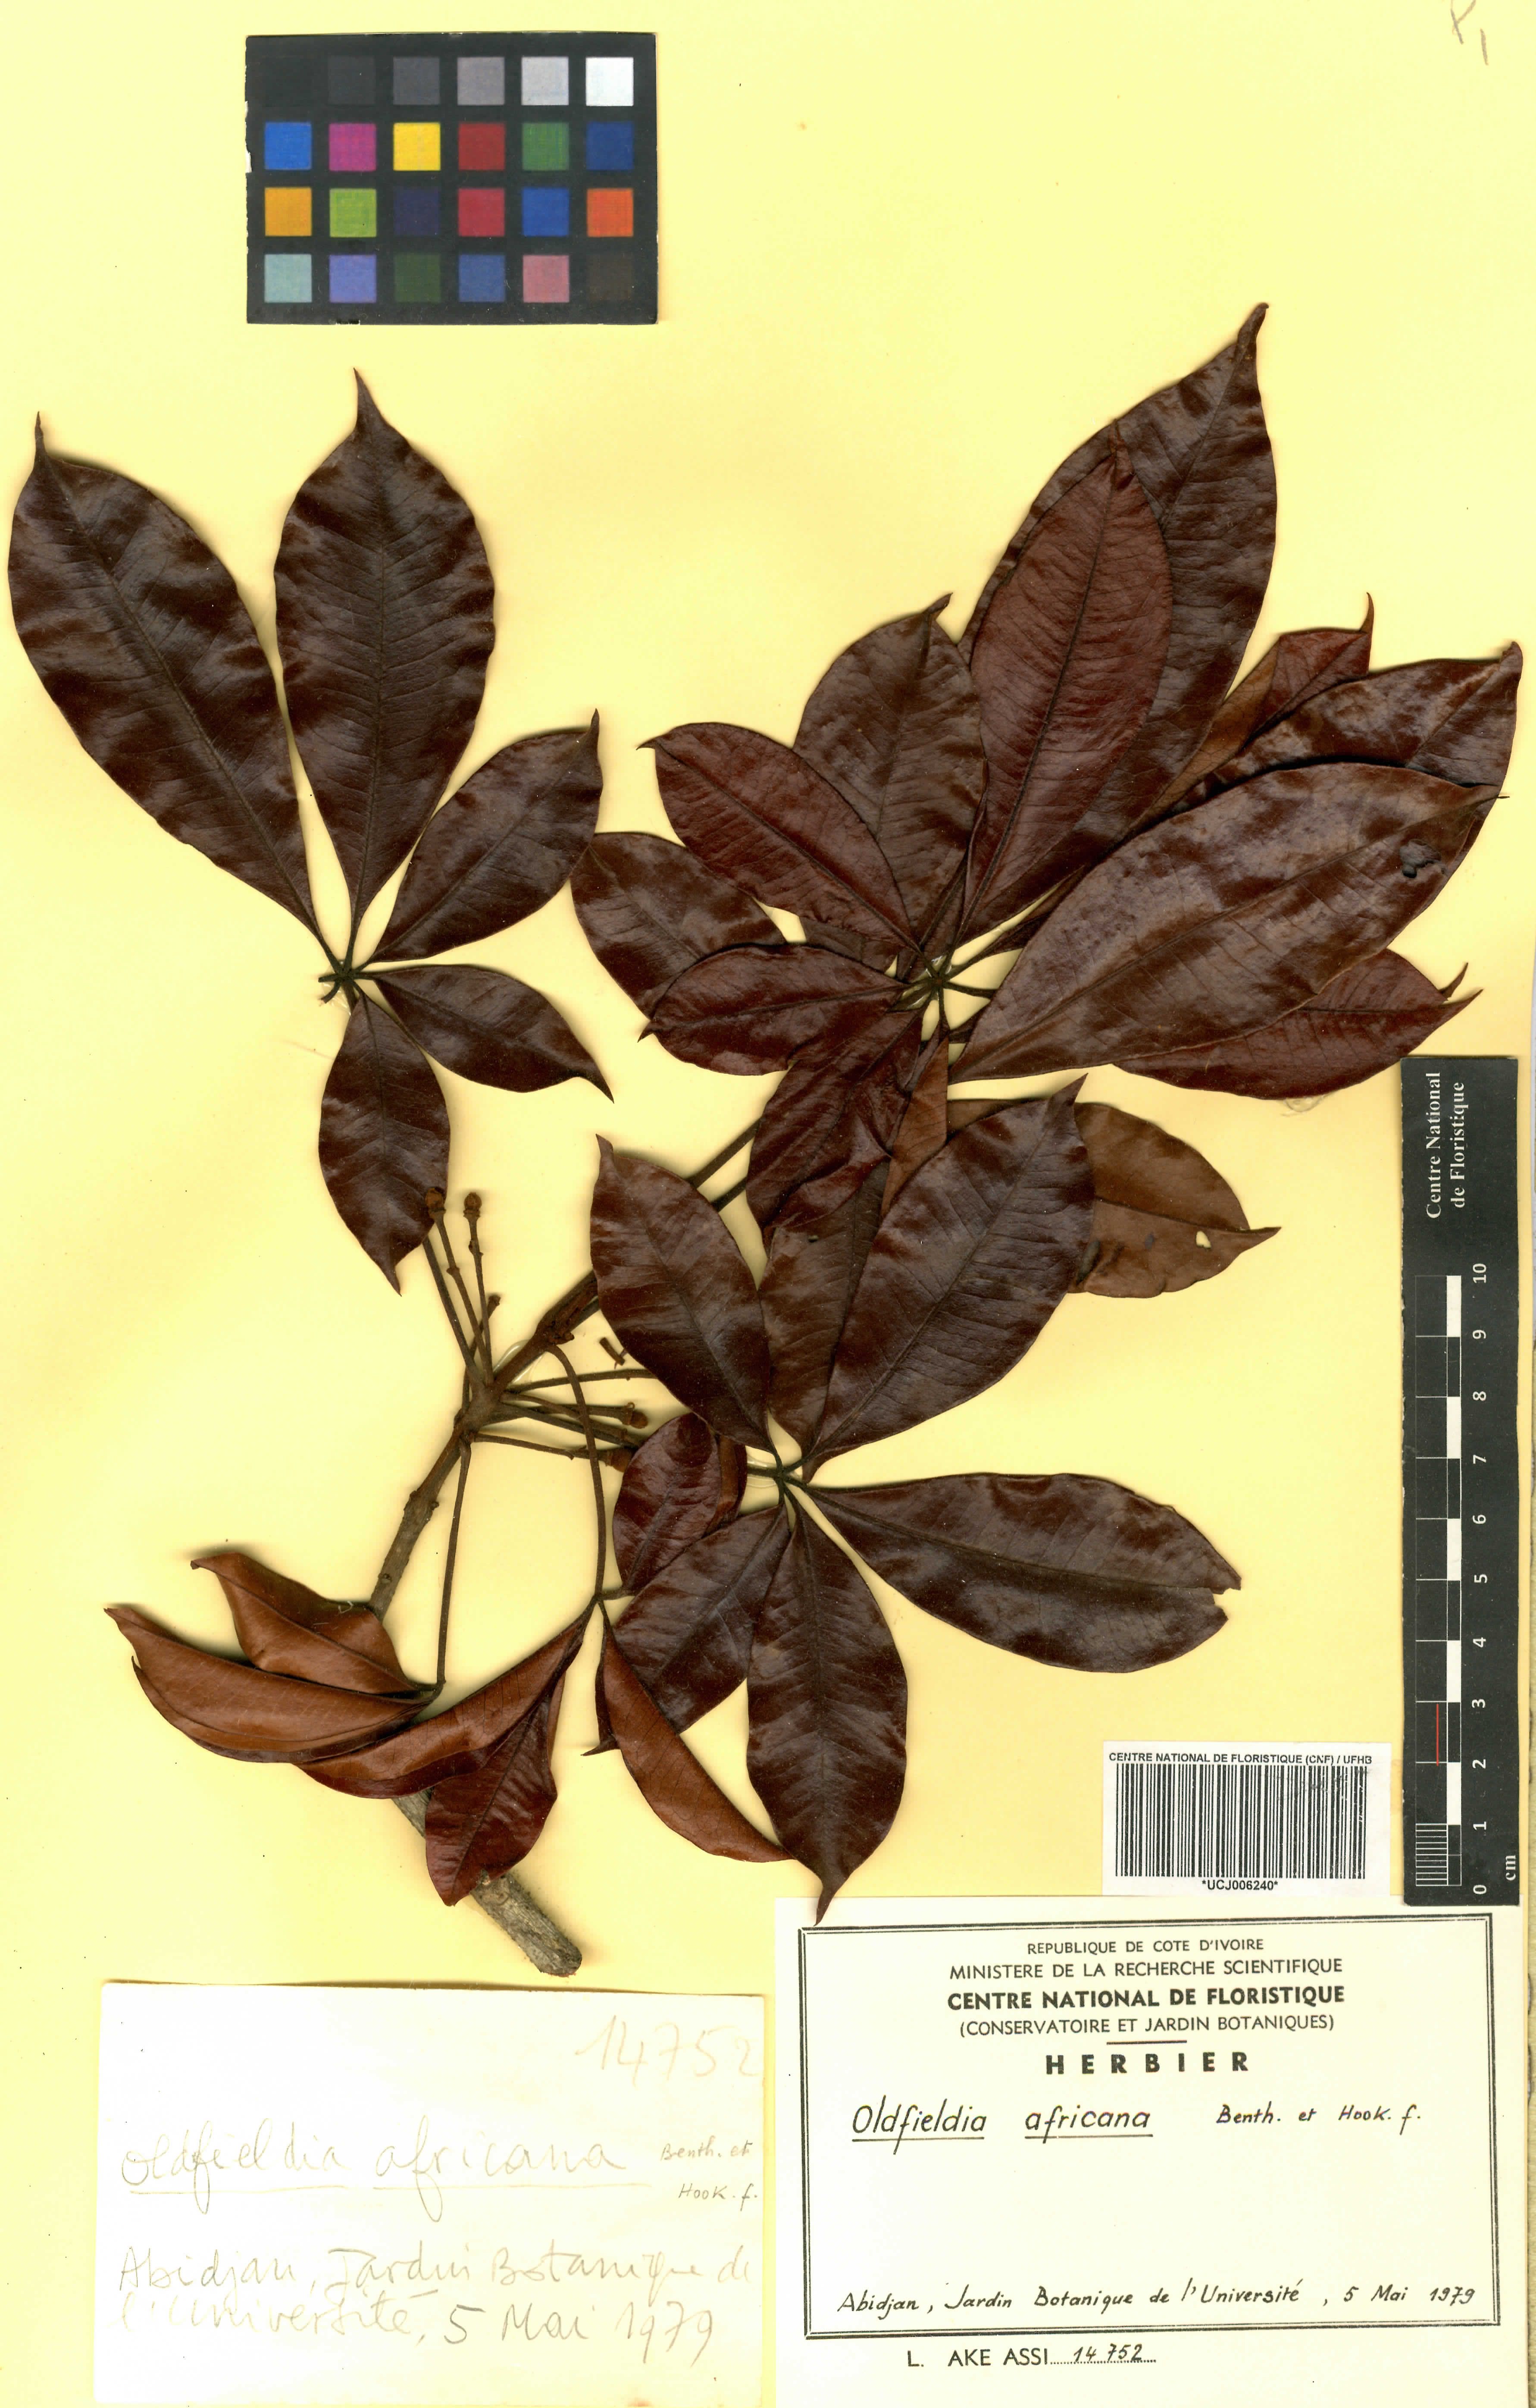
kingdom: Plantae
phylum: Tracheophyta
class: Magnoliopsida
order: Malpighiales
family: Picrodendraceae
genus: Oldfieldia
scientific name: Oldfieldia africana
